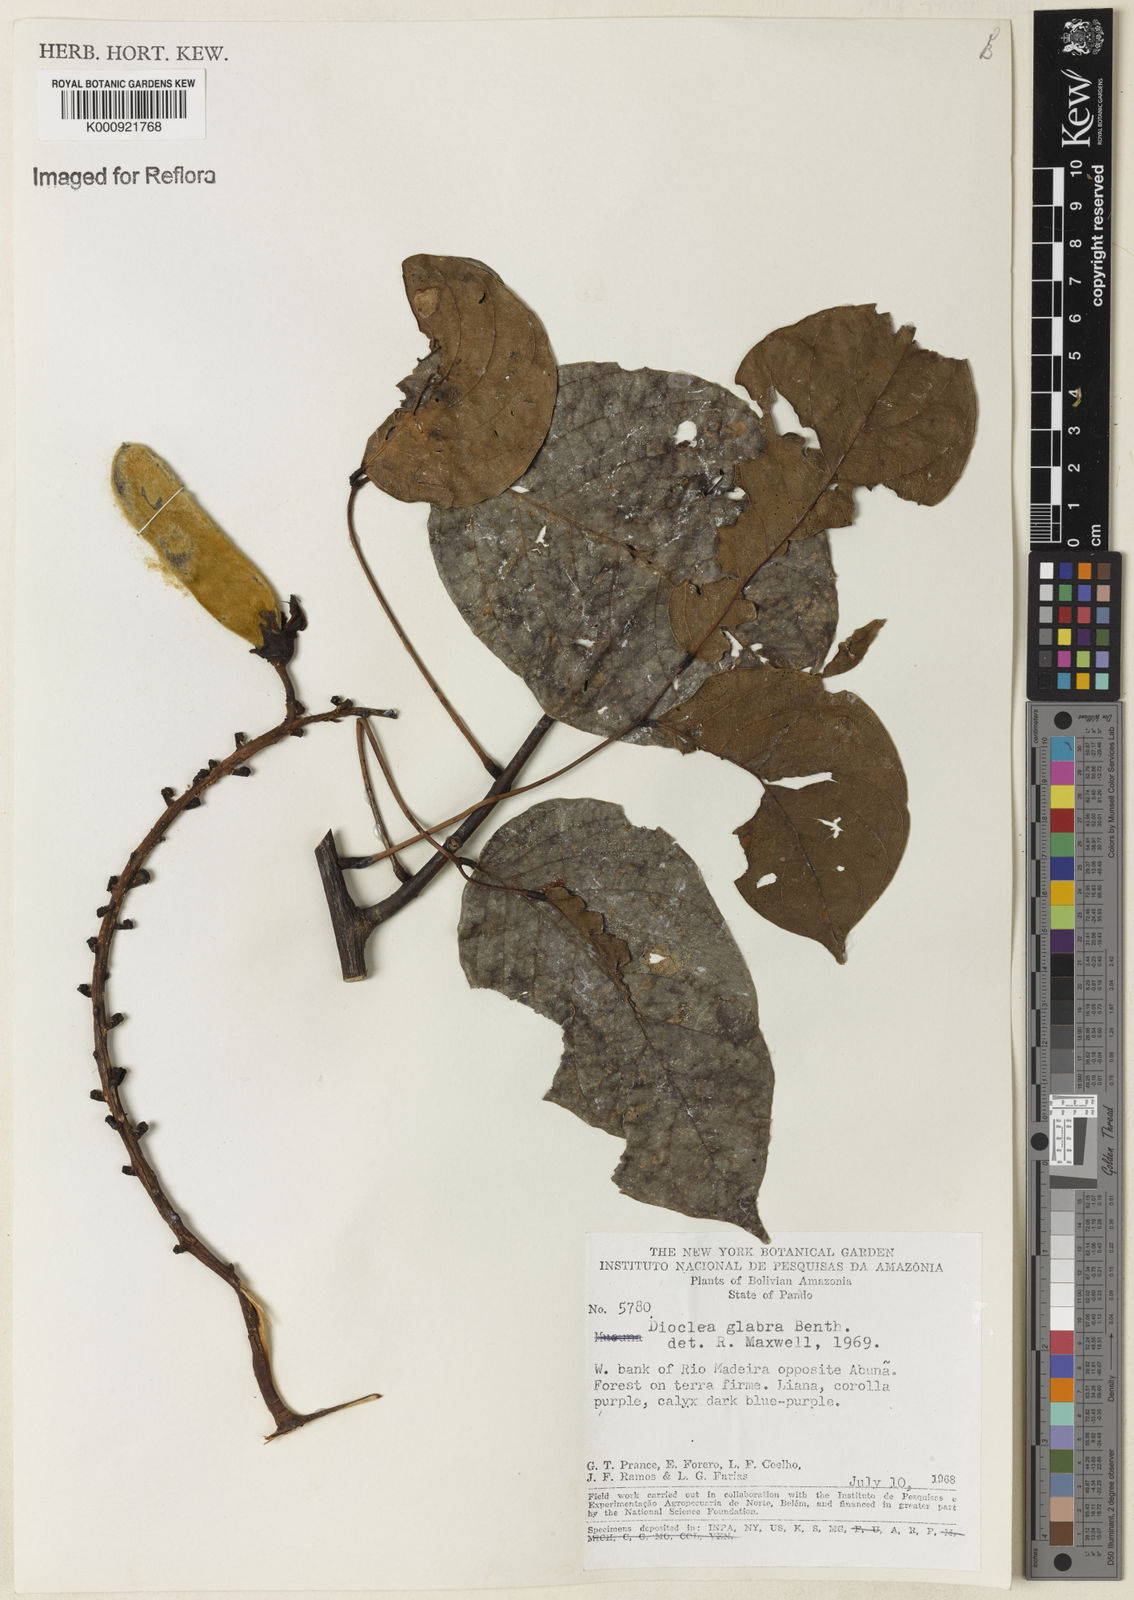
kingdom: Plantae
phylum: Tracheophyta
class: Magnoliopsida
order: Fabales
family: Fabaceae
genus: Macropsychanthus
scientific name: Macropsychanthus glaber
